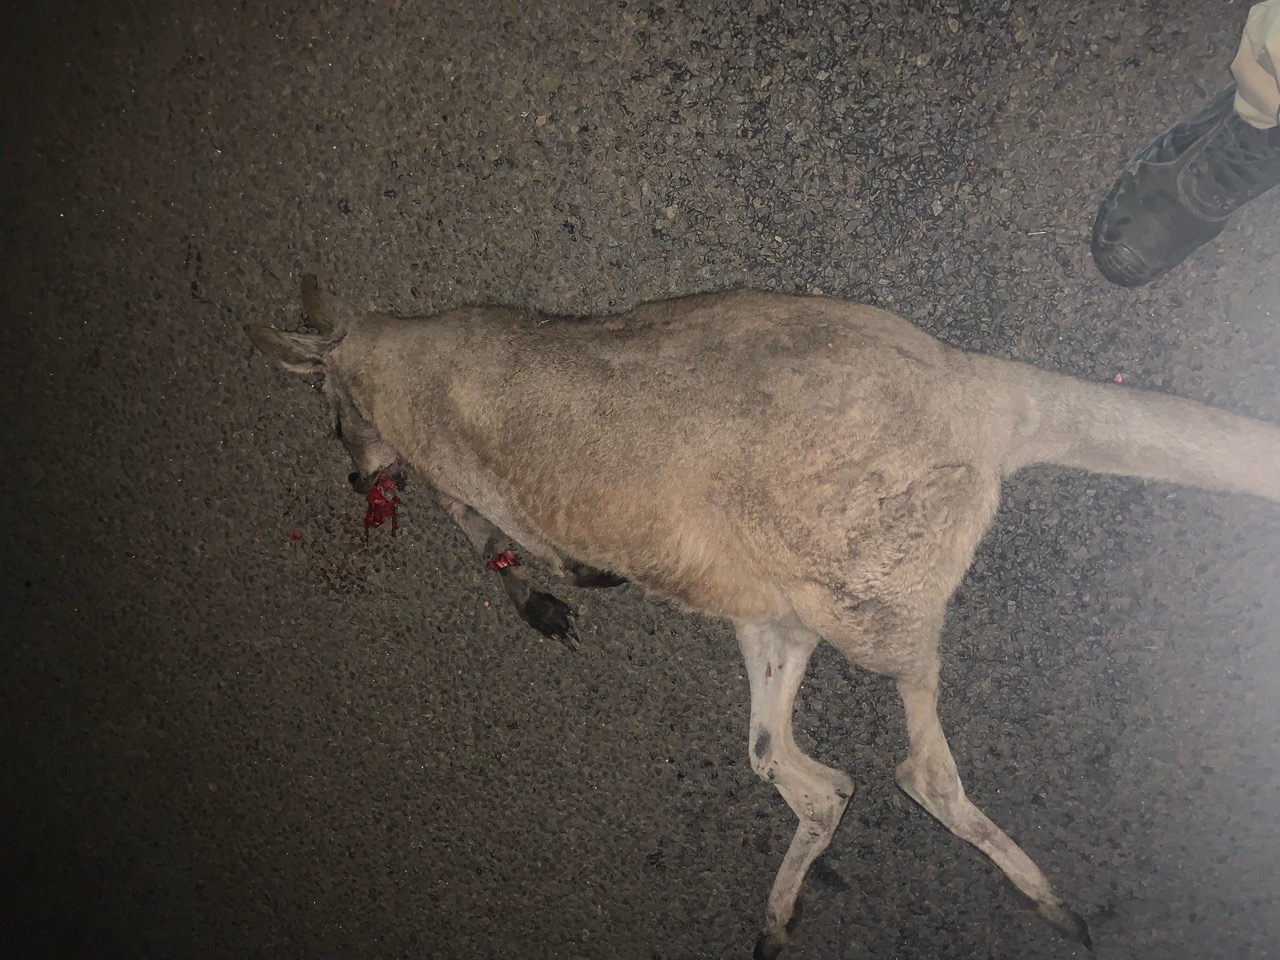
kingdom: Animalia
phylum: Chordata
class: Mammalia
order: Diprotodontia
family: Macropodidae
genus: Macropus
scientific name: Macropus giganteus
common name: Eastern grey kangaroo
